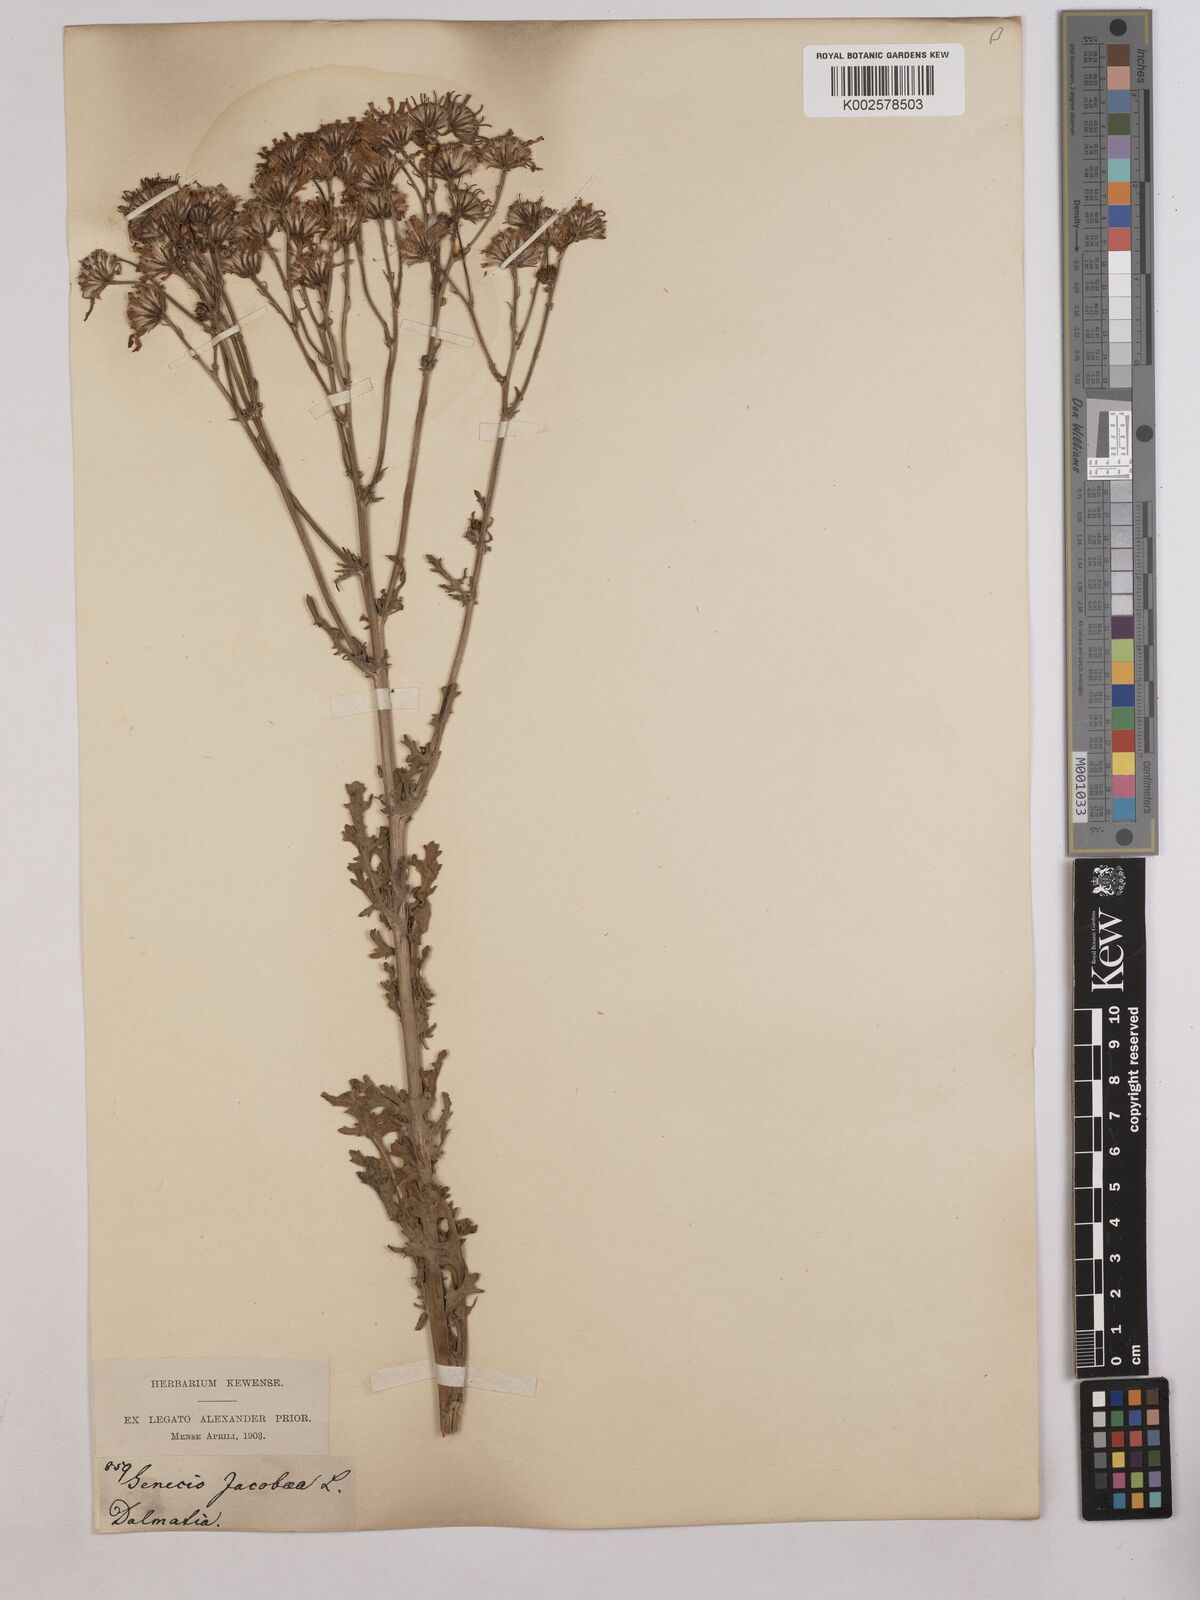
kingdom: Plantae
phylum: Tracheophyta
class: Magnoliopsida
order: Asterales
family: Asteraceae
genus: Jacobaea
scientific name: Jacobaea vulgaris
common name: Stinking willie
